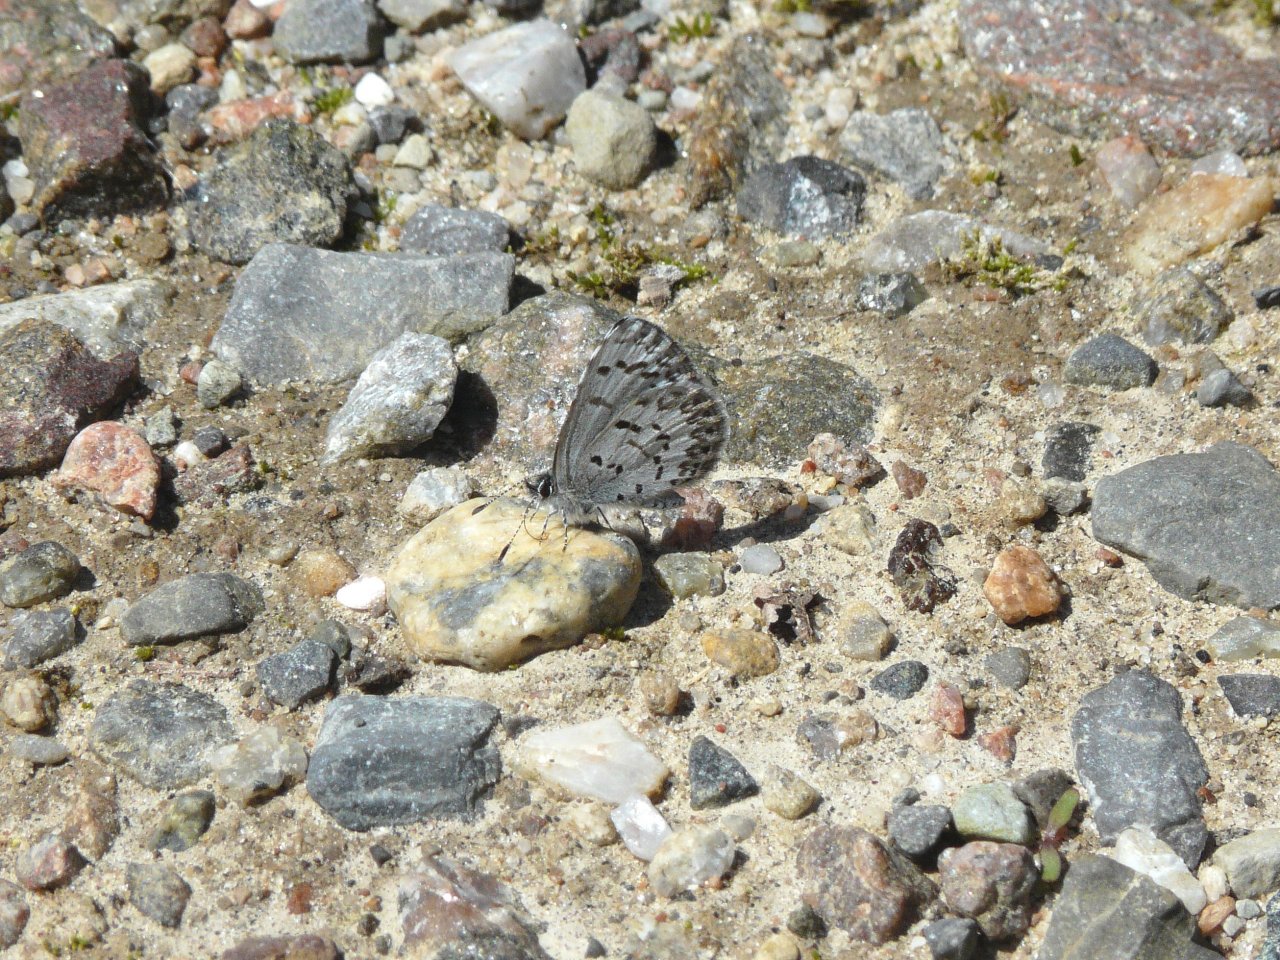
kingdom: Animalia
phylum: Arthropoda
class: Insecta
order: Lepidoptera
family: Lycaenidae
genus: Celastrina
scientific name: Celastrina lucia
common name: Northern Spring Azure
